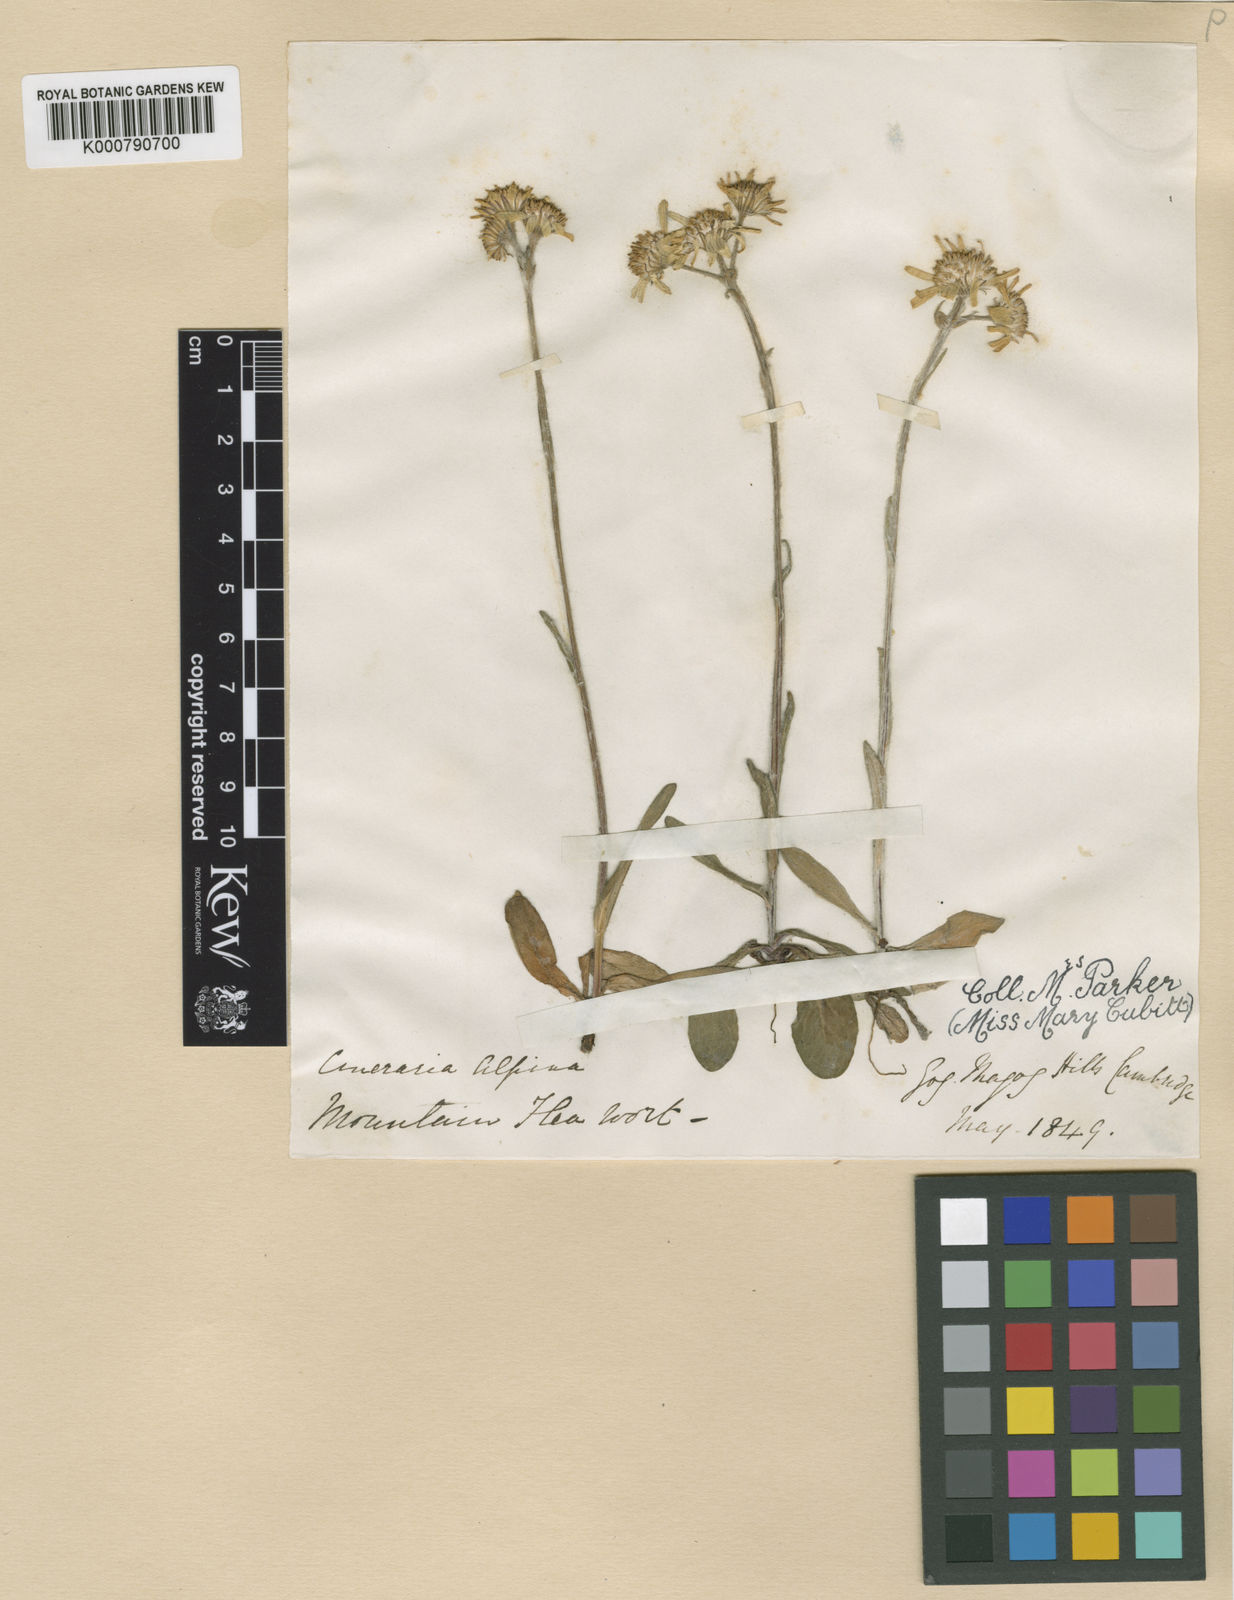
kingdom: Plantae
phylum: Tracheophyta
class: Magnoliopsida
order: Asterales
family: Asteraceae
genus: Tephroseris
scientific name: Tephroseris integrifolia
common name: Field fleawort
